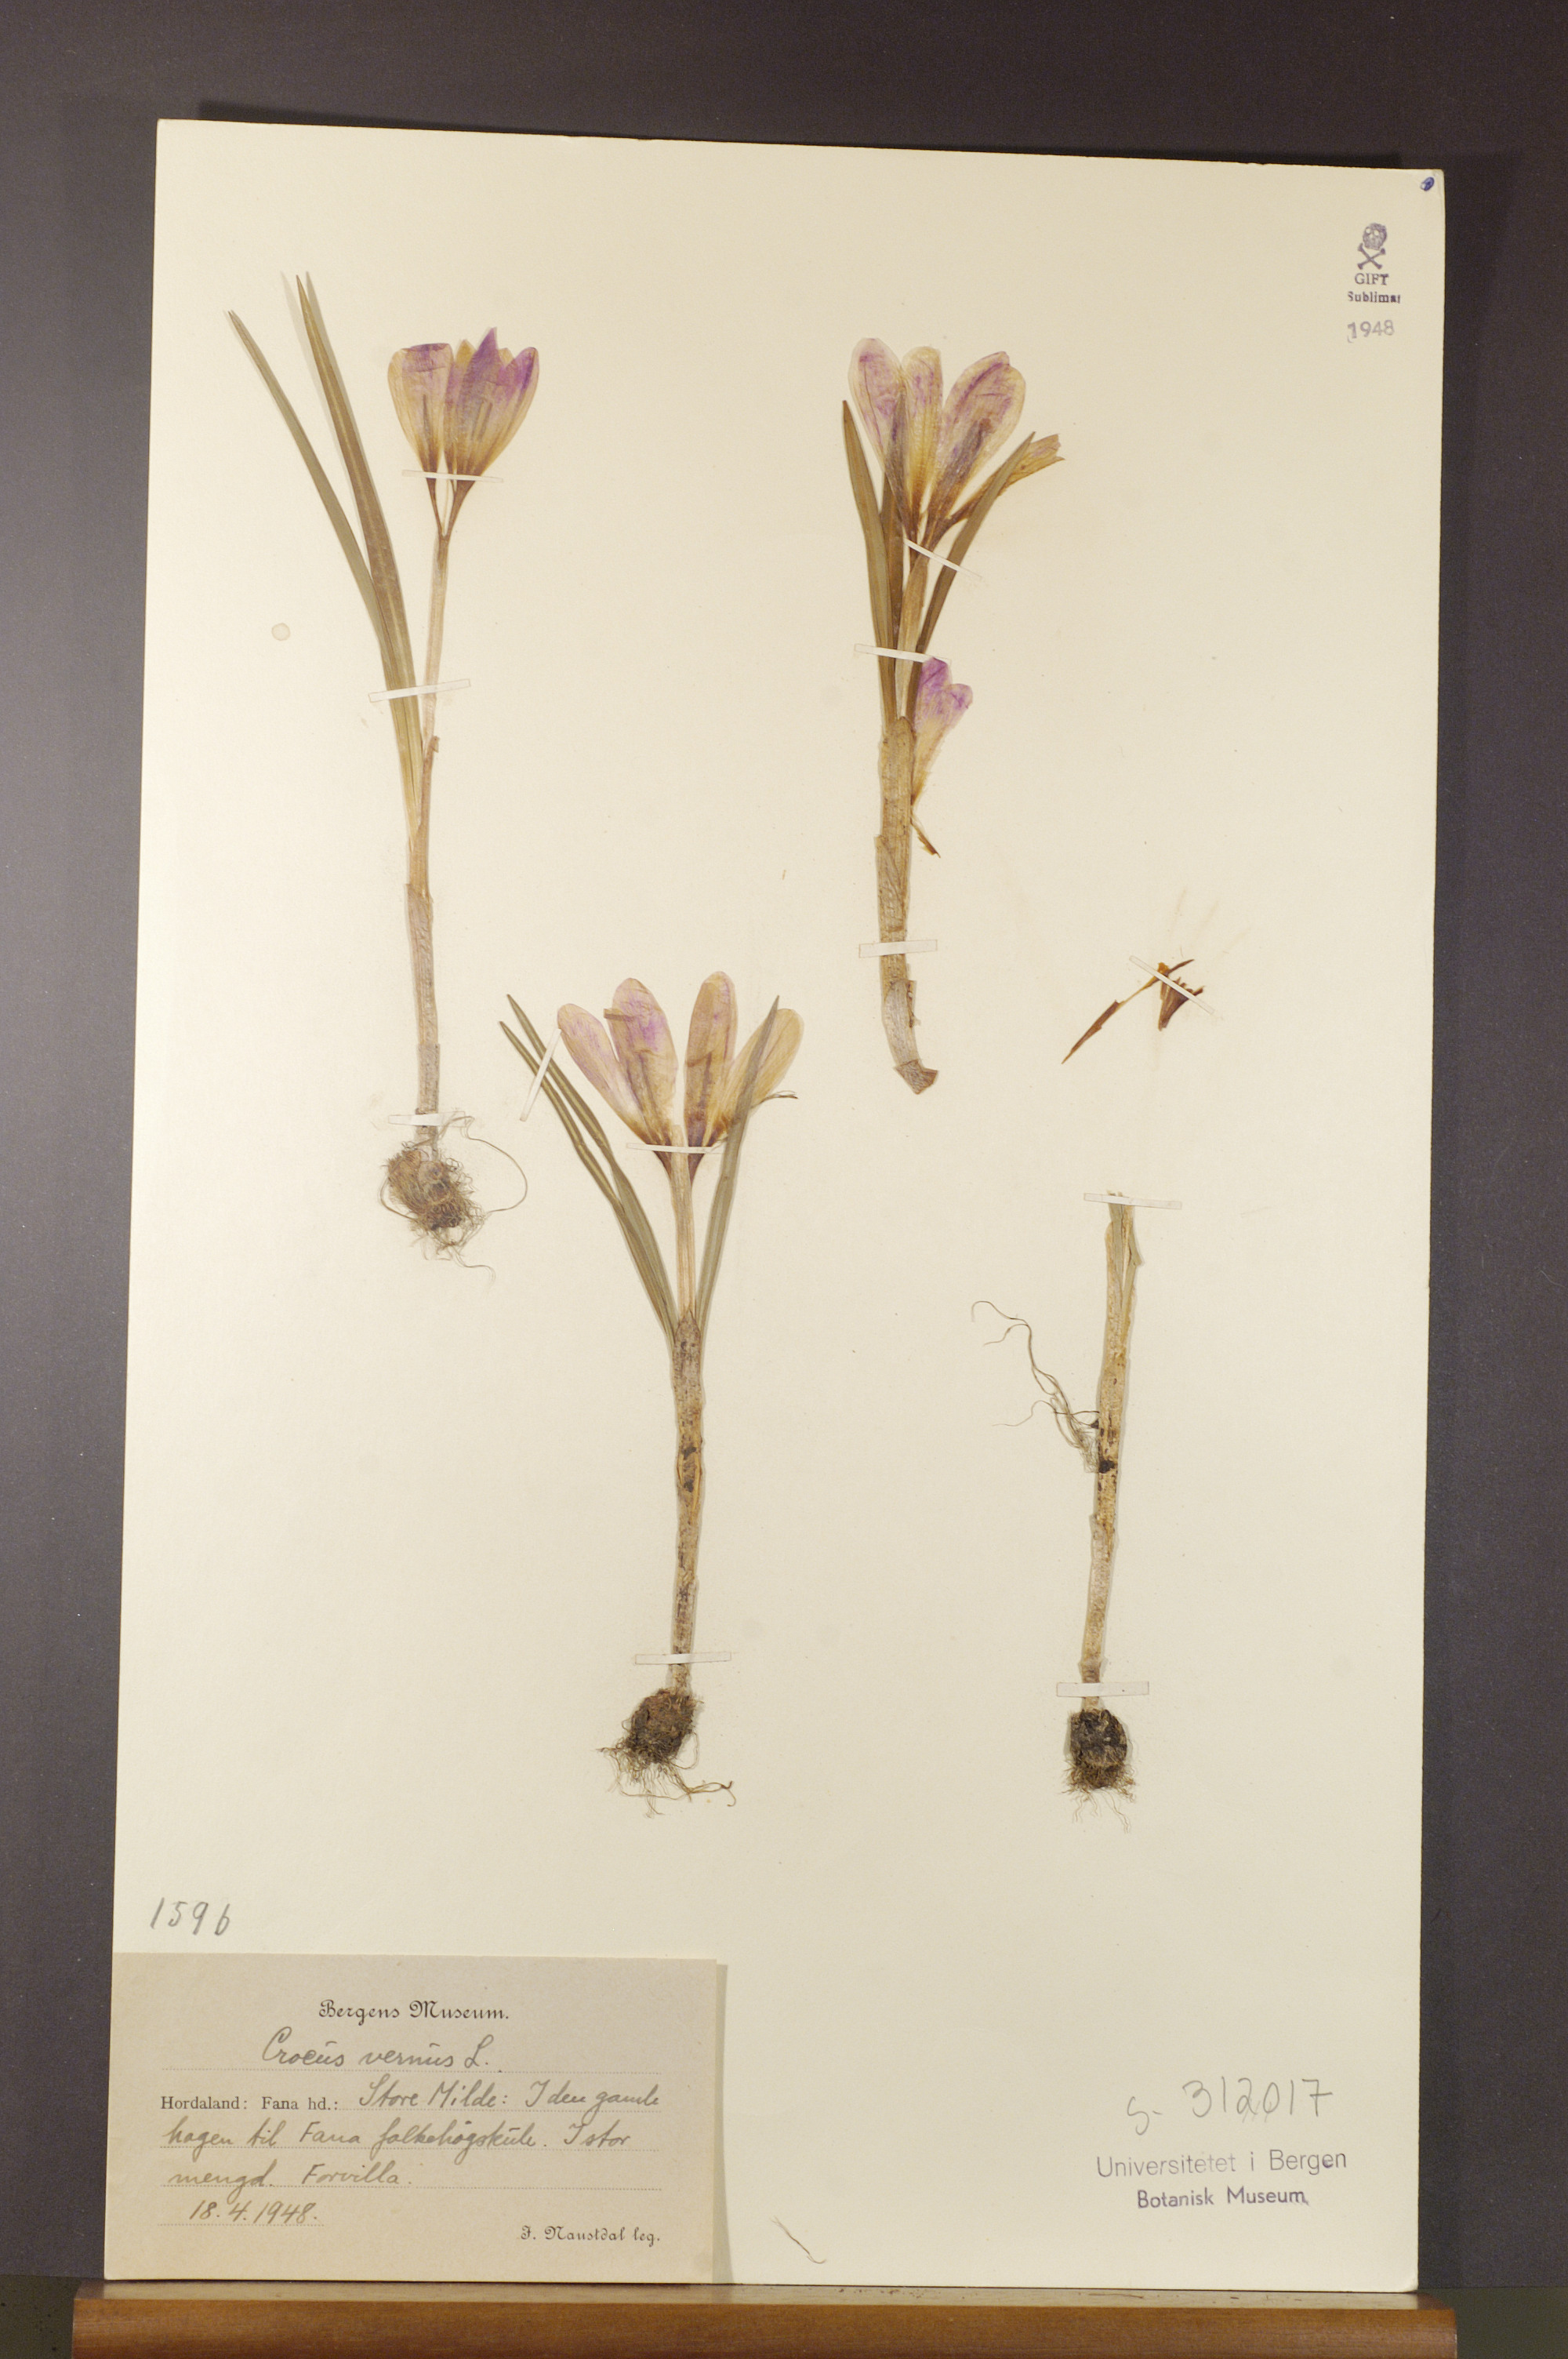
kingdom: Plantae
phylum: Tracheophyta
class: Liliopsida
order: Asparagales
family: Iridaceae
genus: Crocus
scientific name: Crocus vernus
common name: Spring crocus
